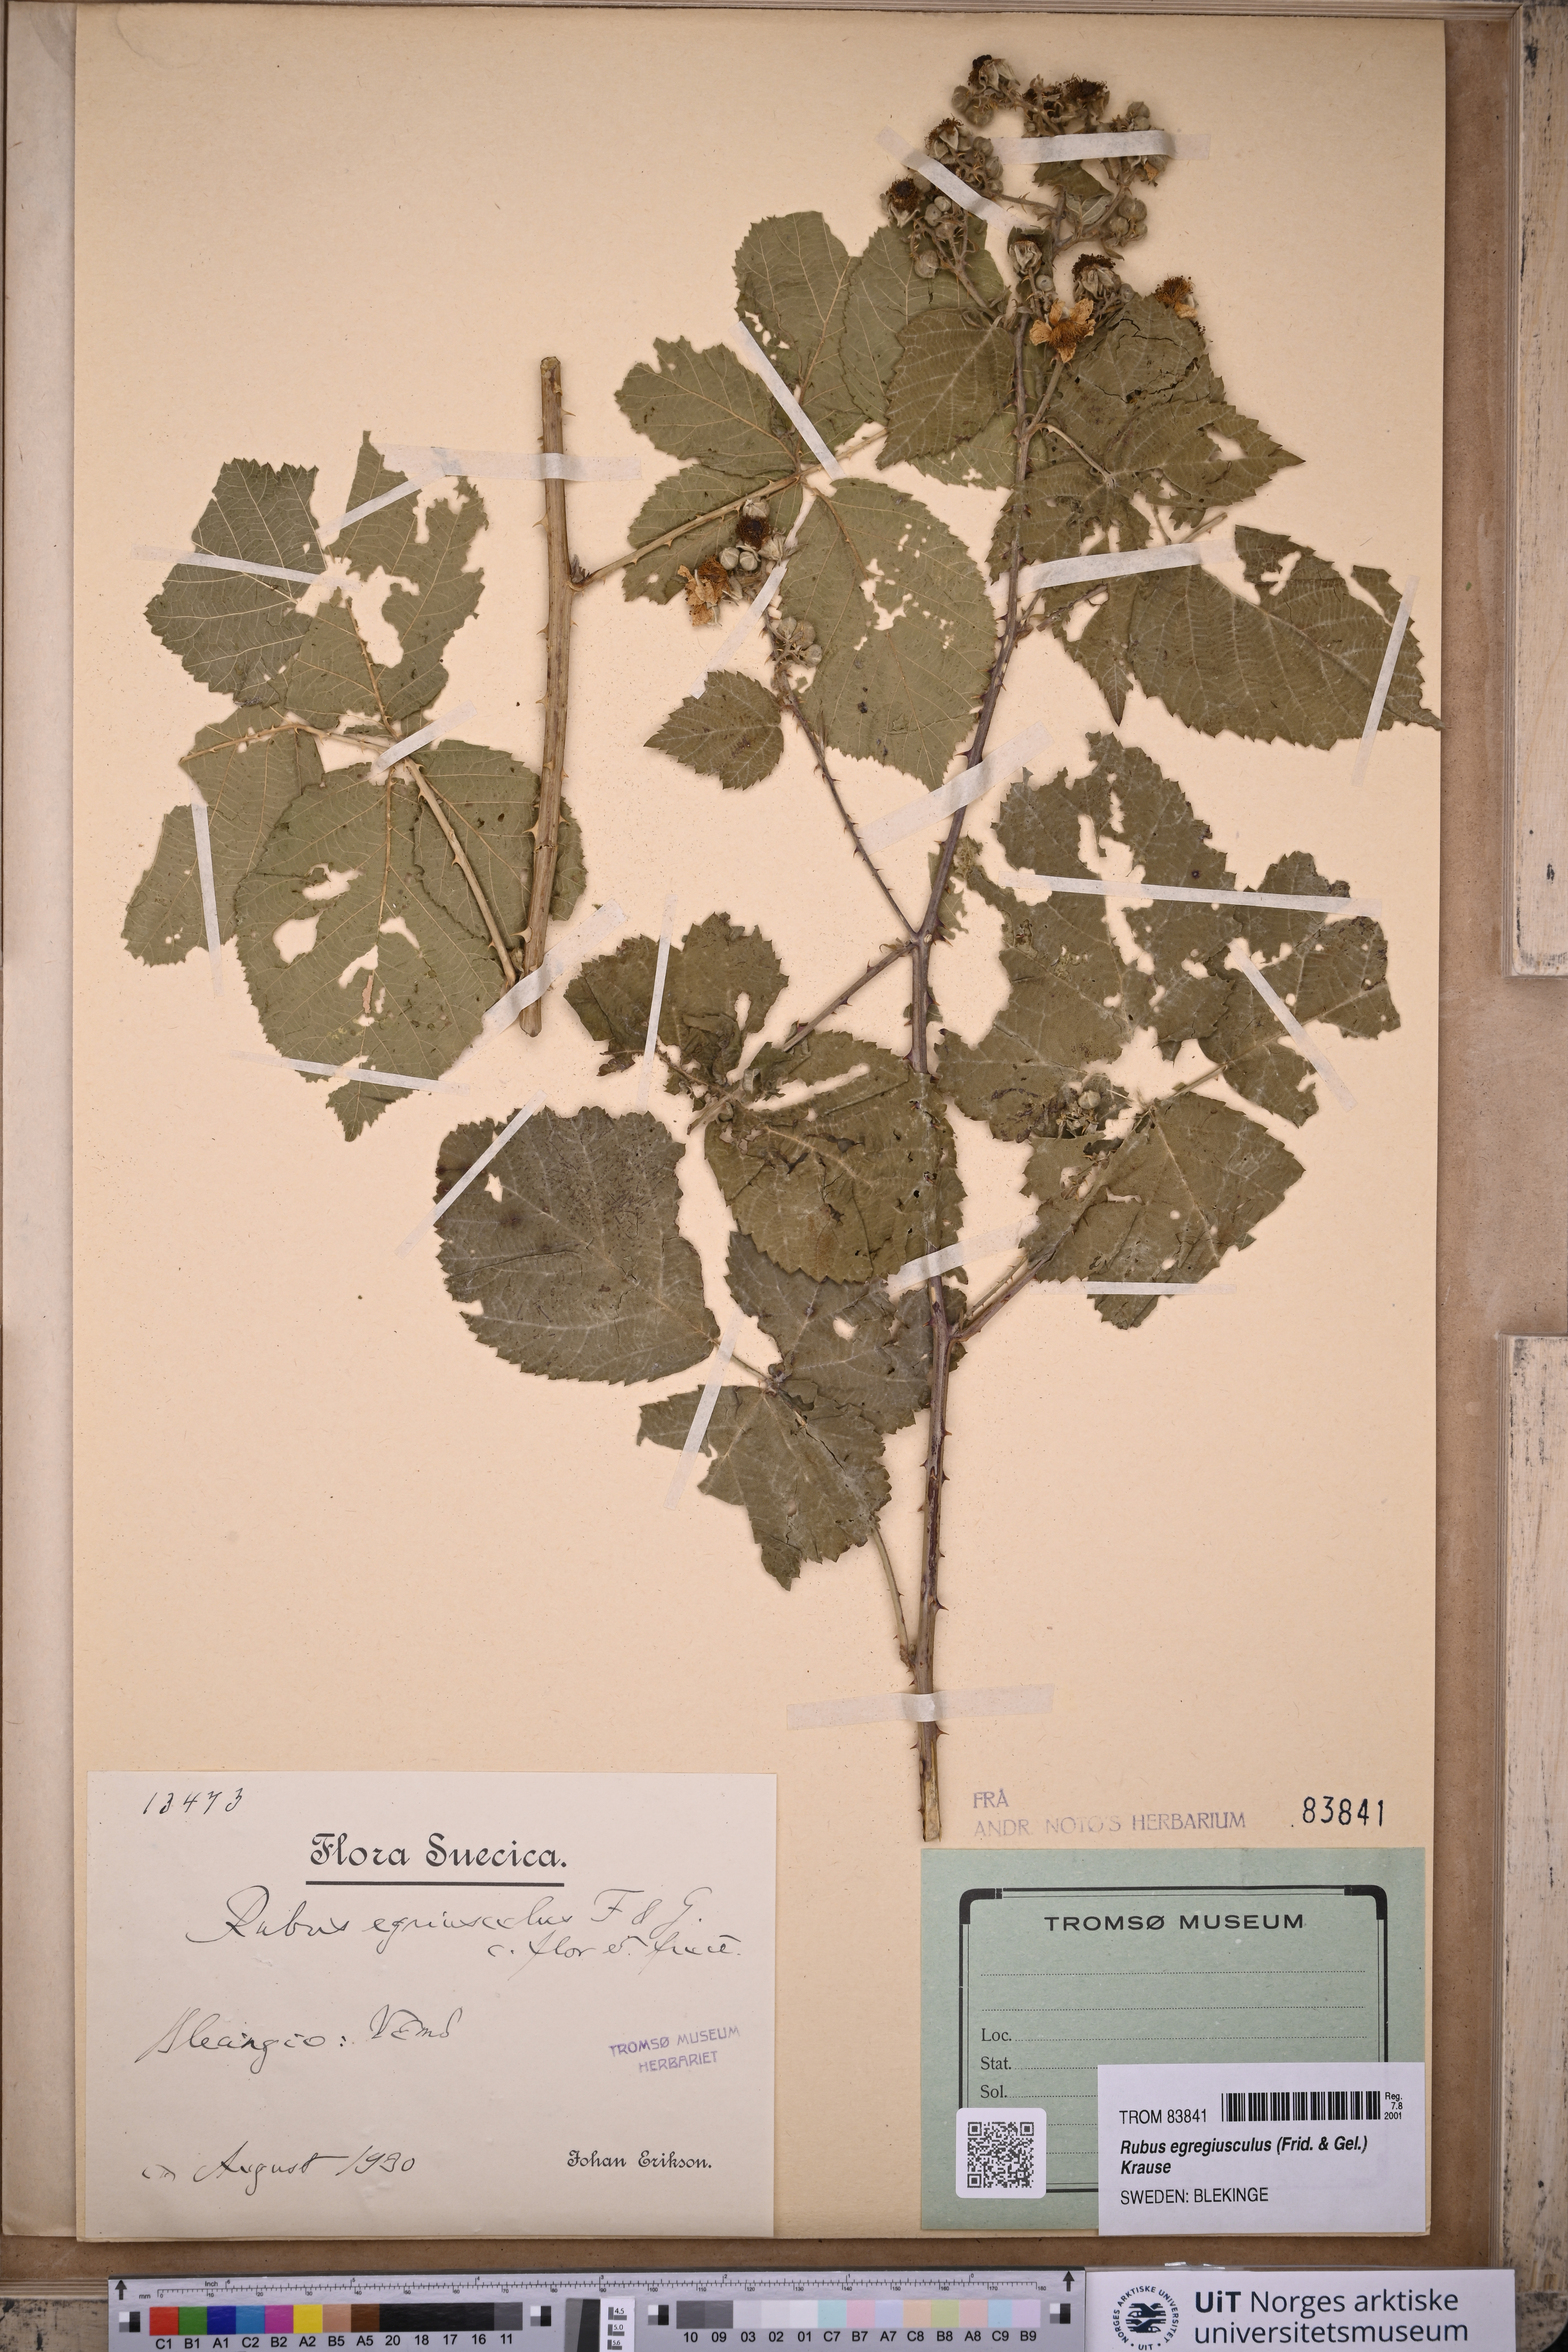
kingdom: Plantae
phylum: Tracheophyta
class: Magnoliopsida
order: Rosales
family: Rosaceae
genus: Rubus
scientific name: Rubus egregiusculus
